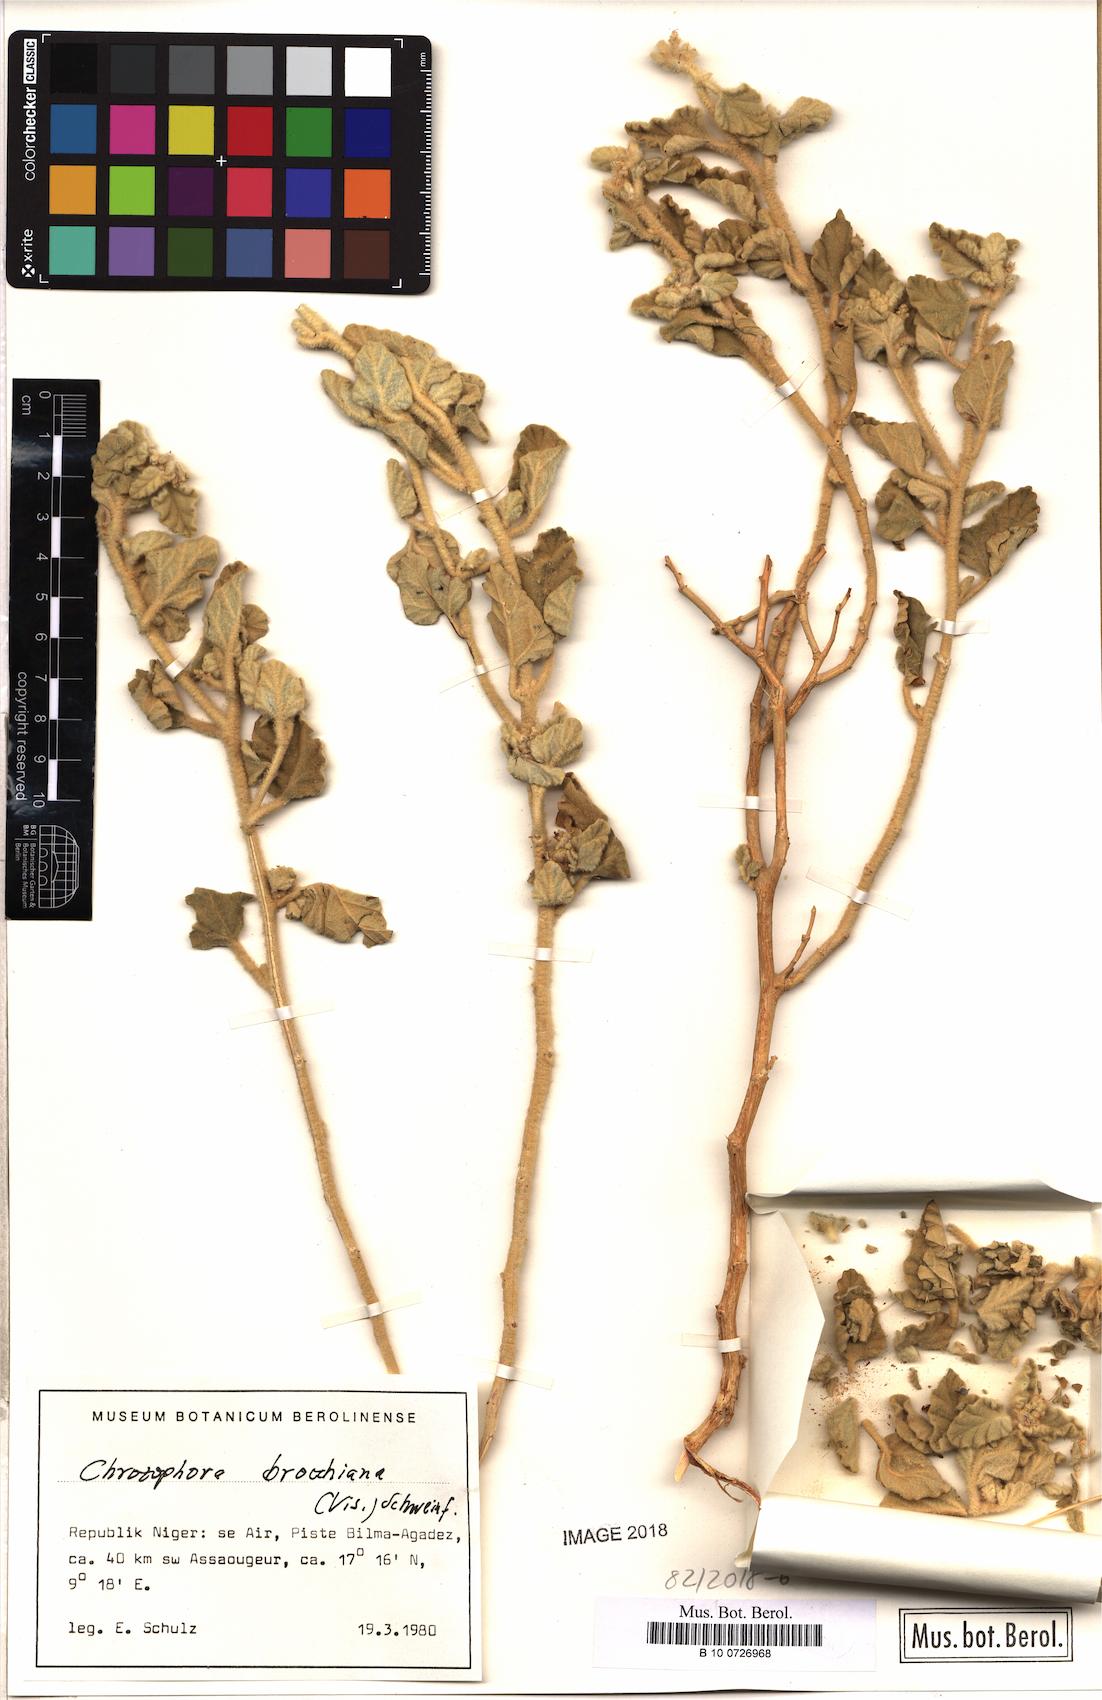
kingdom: Plantae
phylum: Tracheophyta
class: Magnoliopsida
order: Malpighiales
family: Euphorbiaceae
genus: Chrozophora
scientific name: Chrozophora brocchiana
